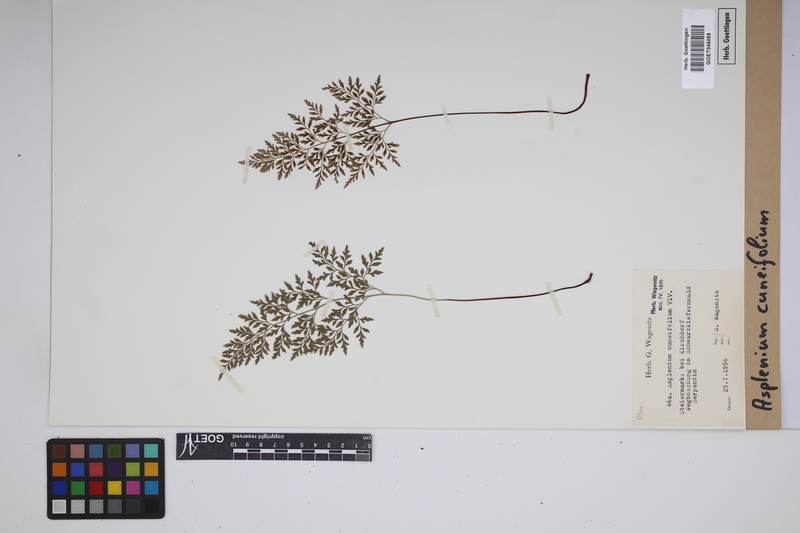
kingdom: Plantae
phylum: Tracheophyta
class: Polypodiopsida
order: Polypodiales
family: Aspleniaceae
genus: Asplenium
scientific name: Asplenium cuneifolium
